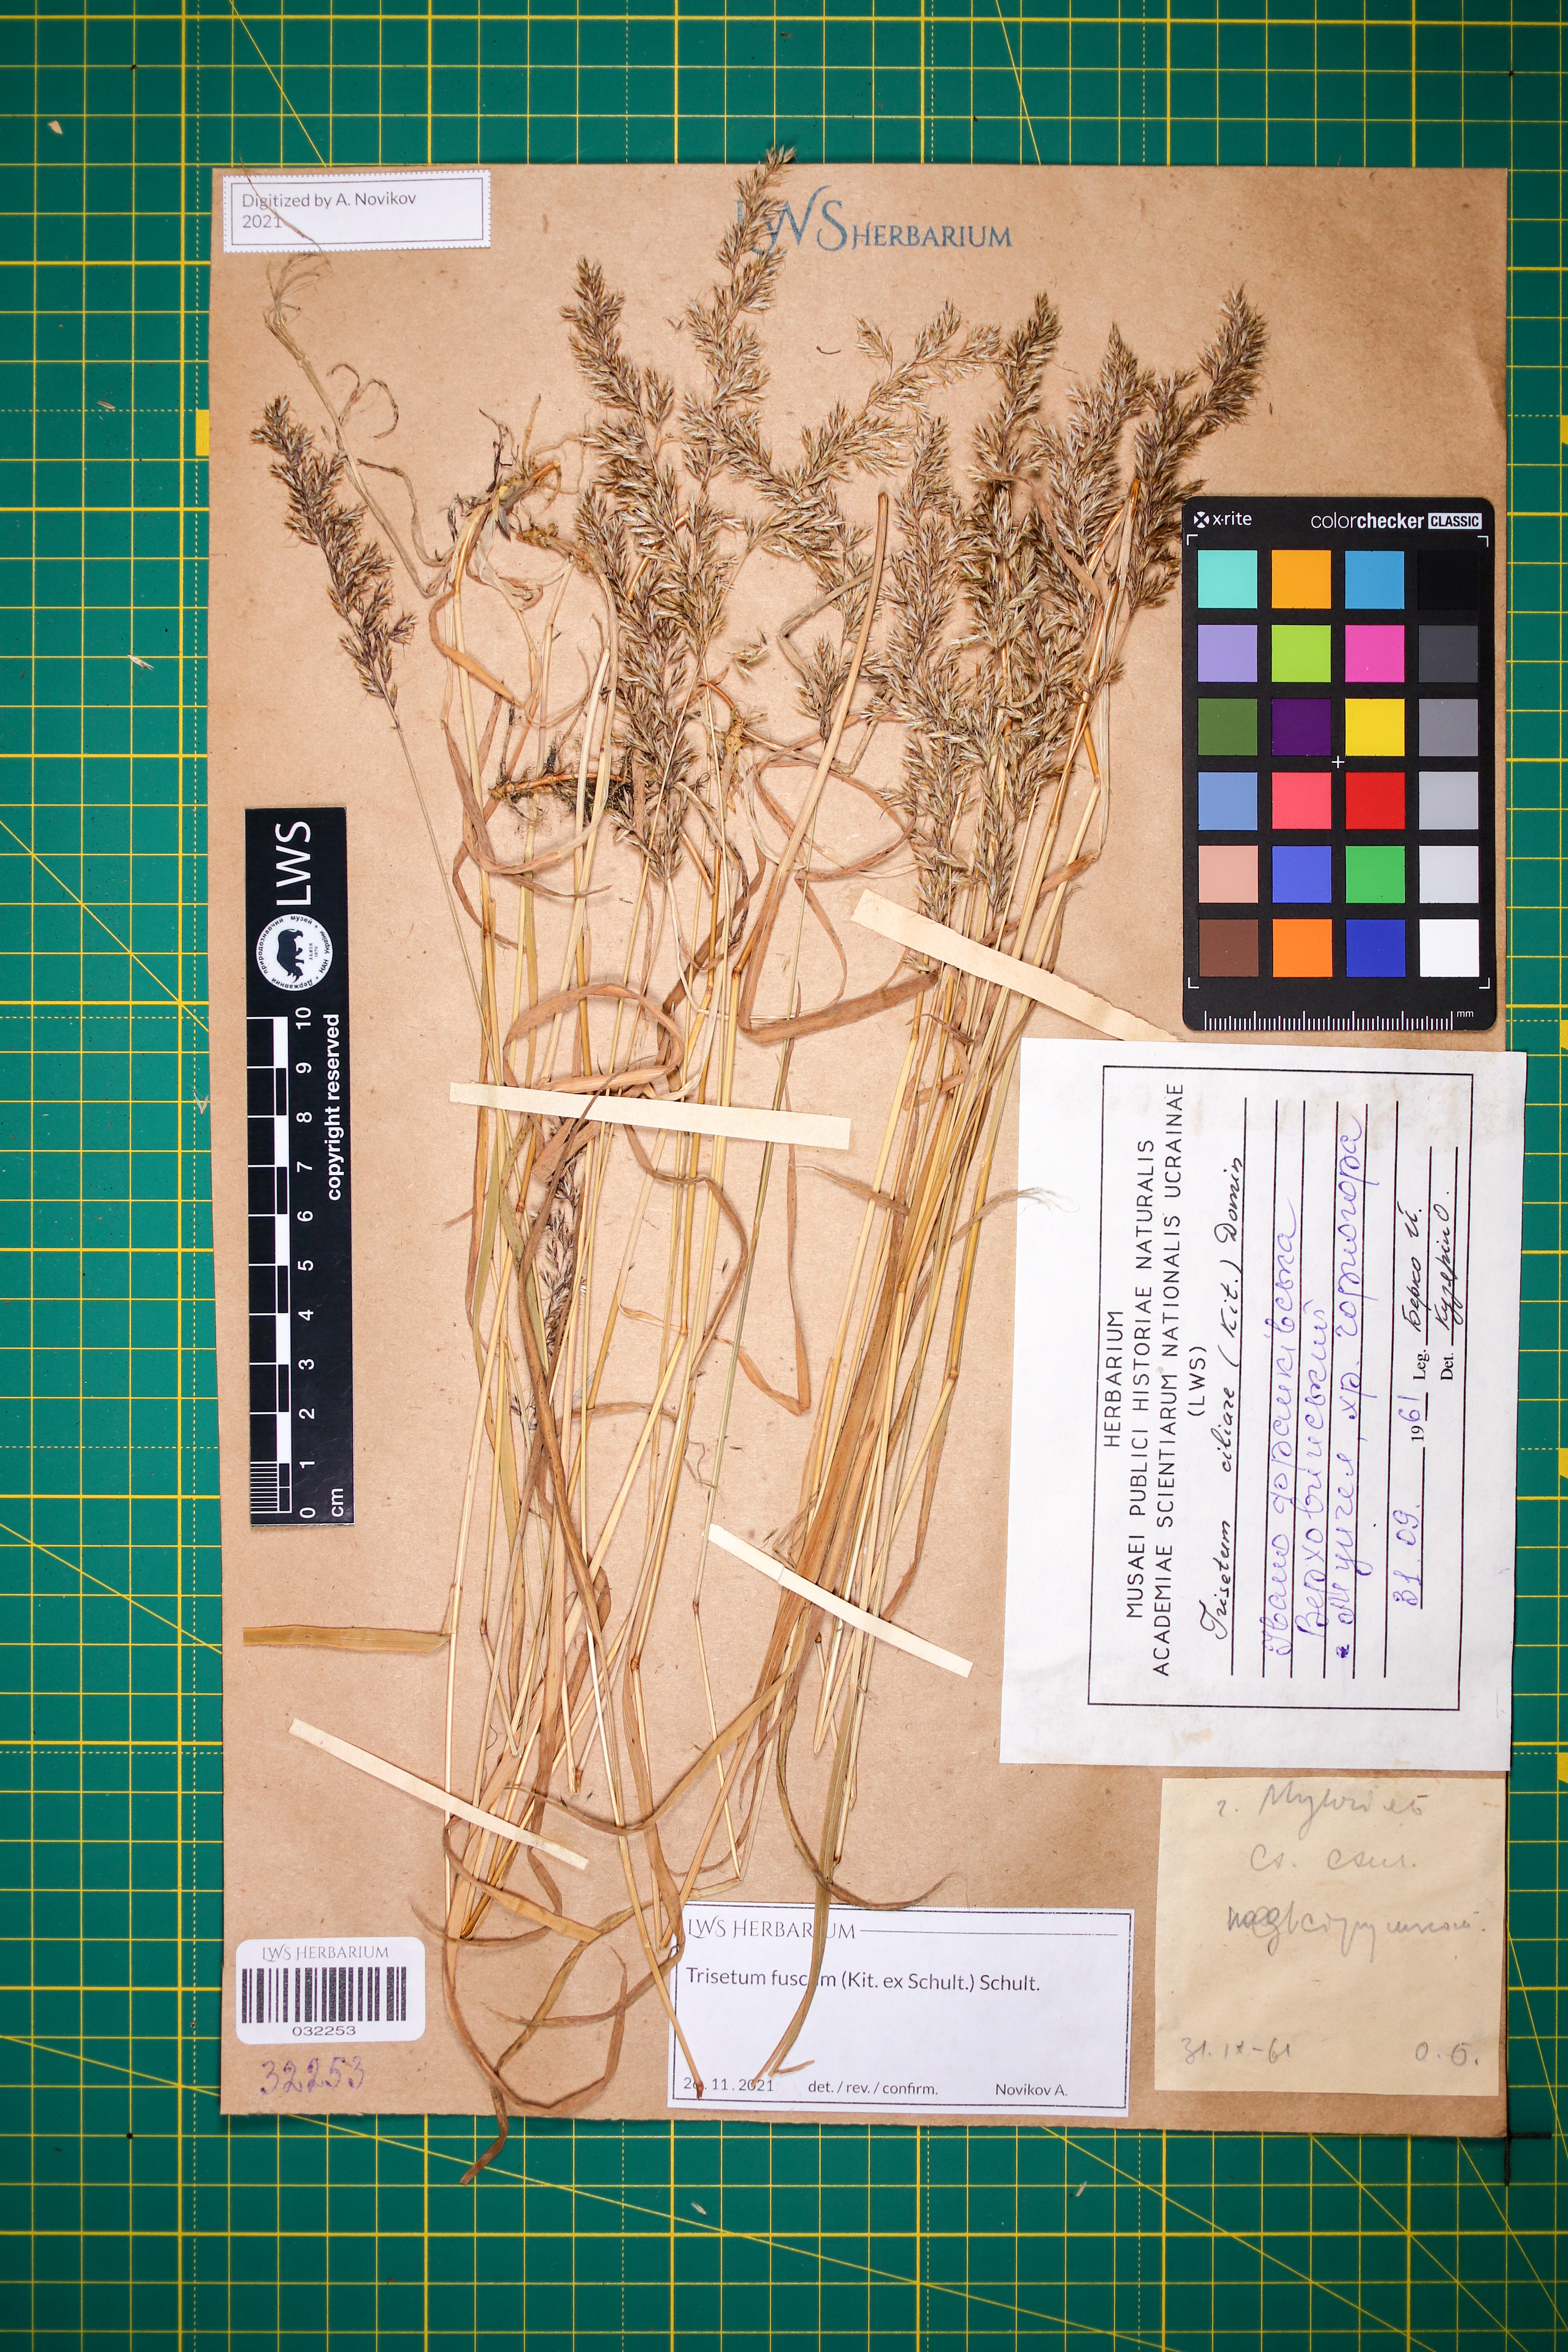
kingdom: Plantae
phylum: Tracheophyta
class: Liliopsida
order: Poales
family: Poaceae
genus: Trisetum
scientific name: Trisetum fuscum
